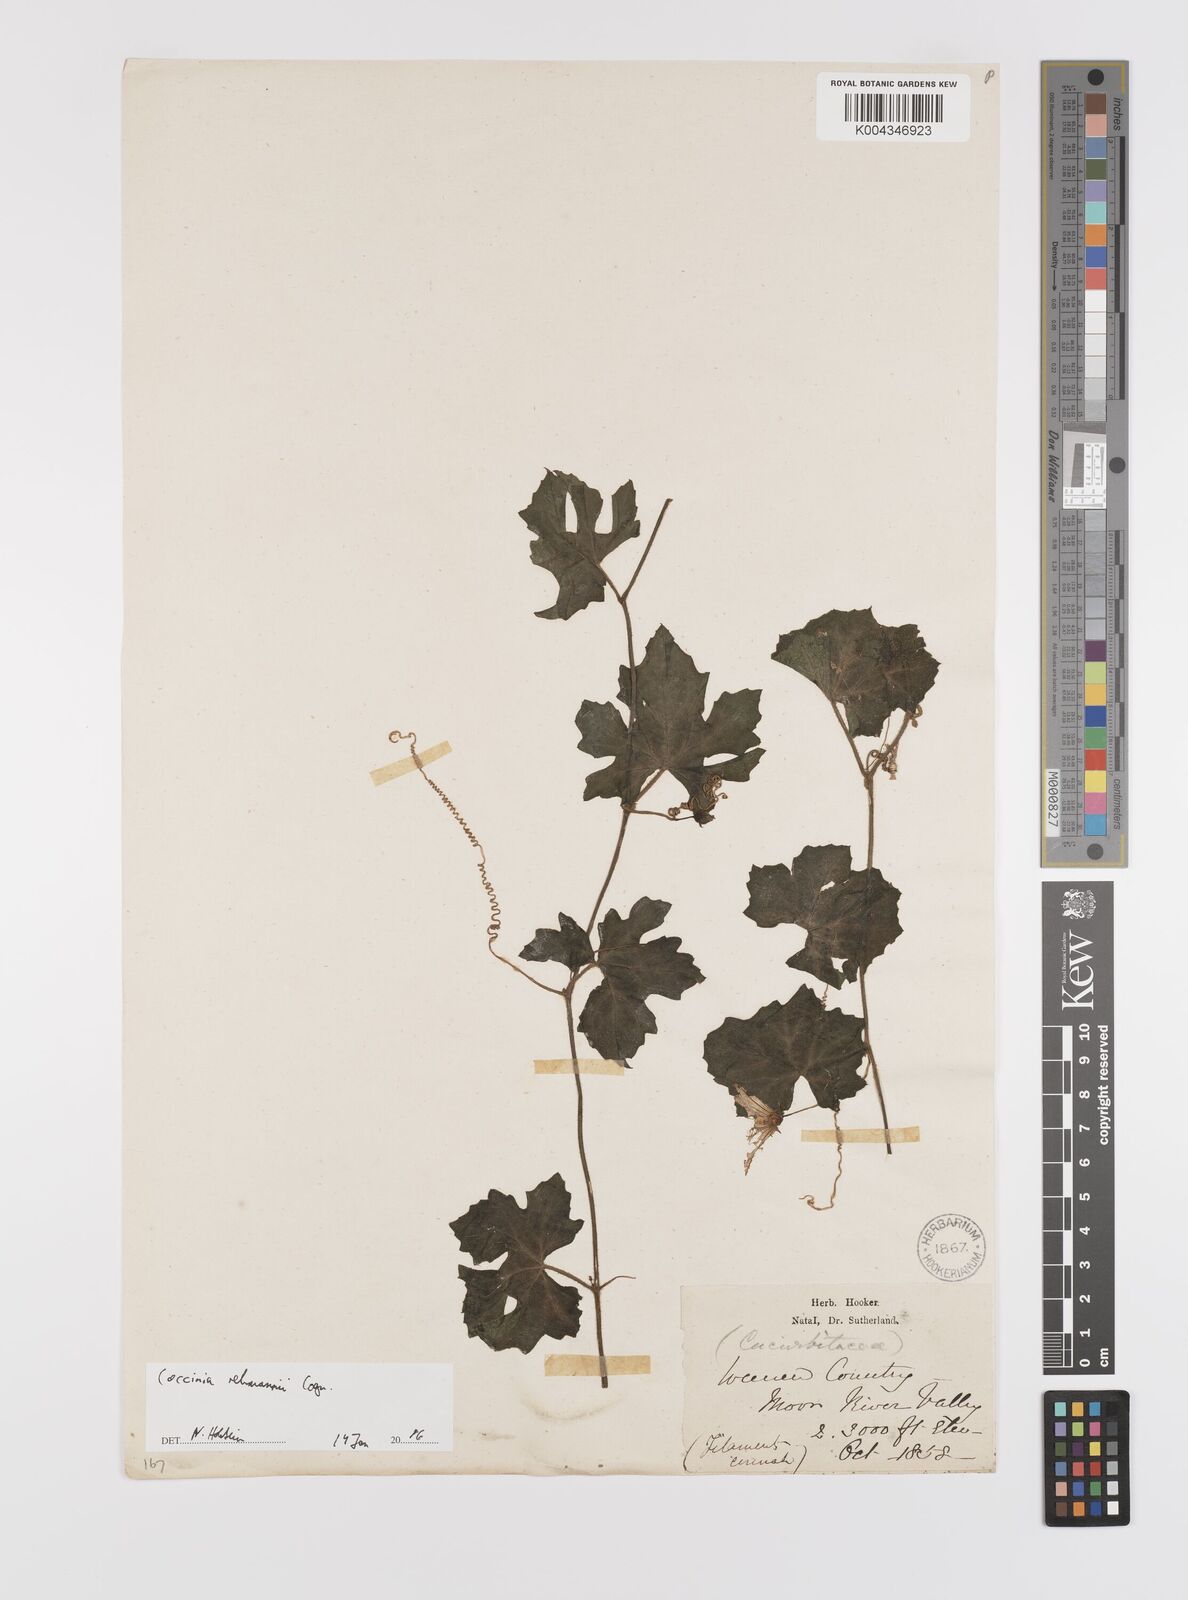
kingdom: Plantae
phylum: Tracheophyta
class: Magnoliopsida
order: Cucurbitales
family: Cucurbitaceae
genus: Coccinia
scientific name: Coccinia rehmannii
